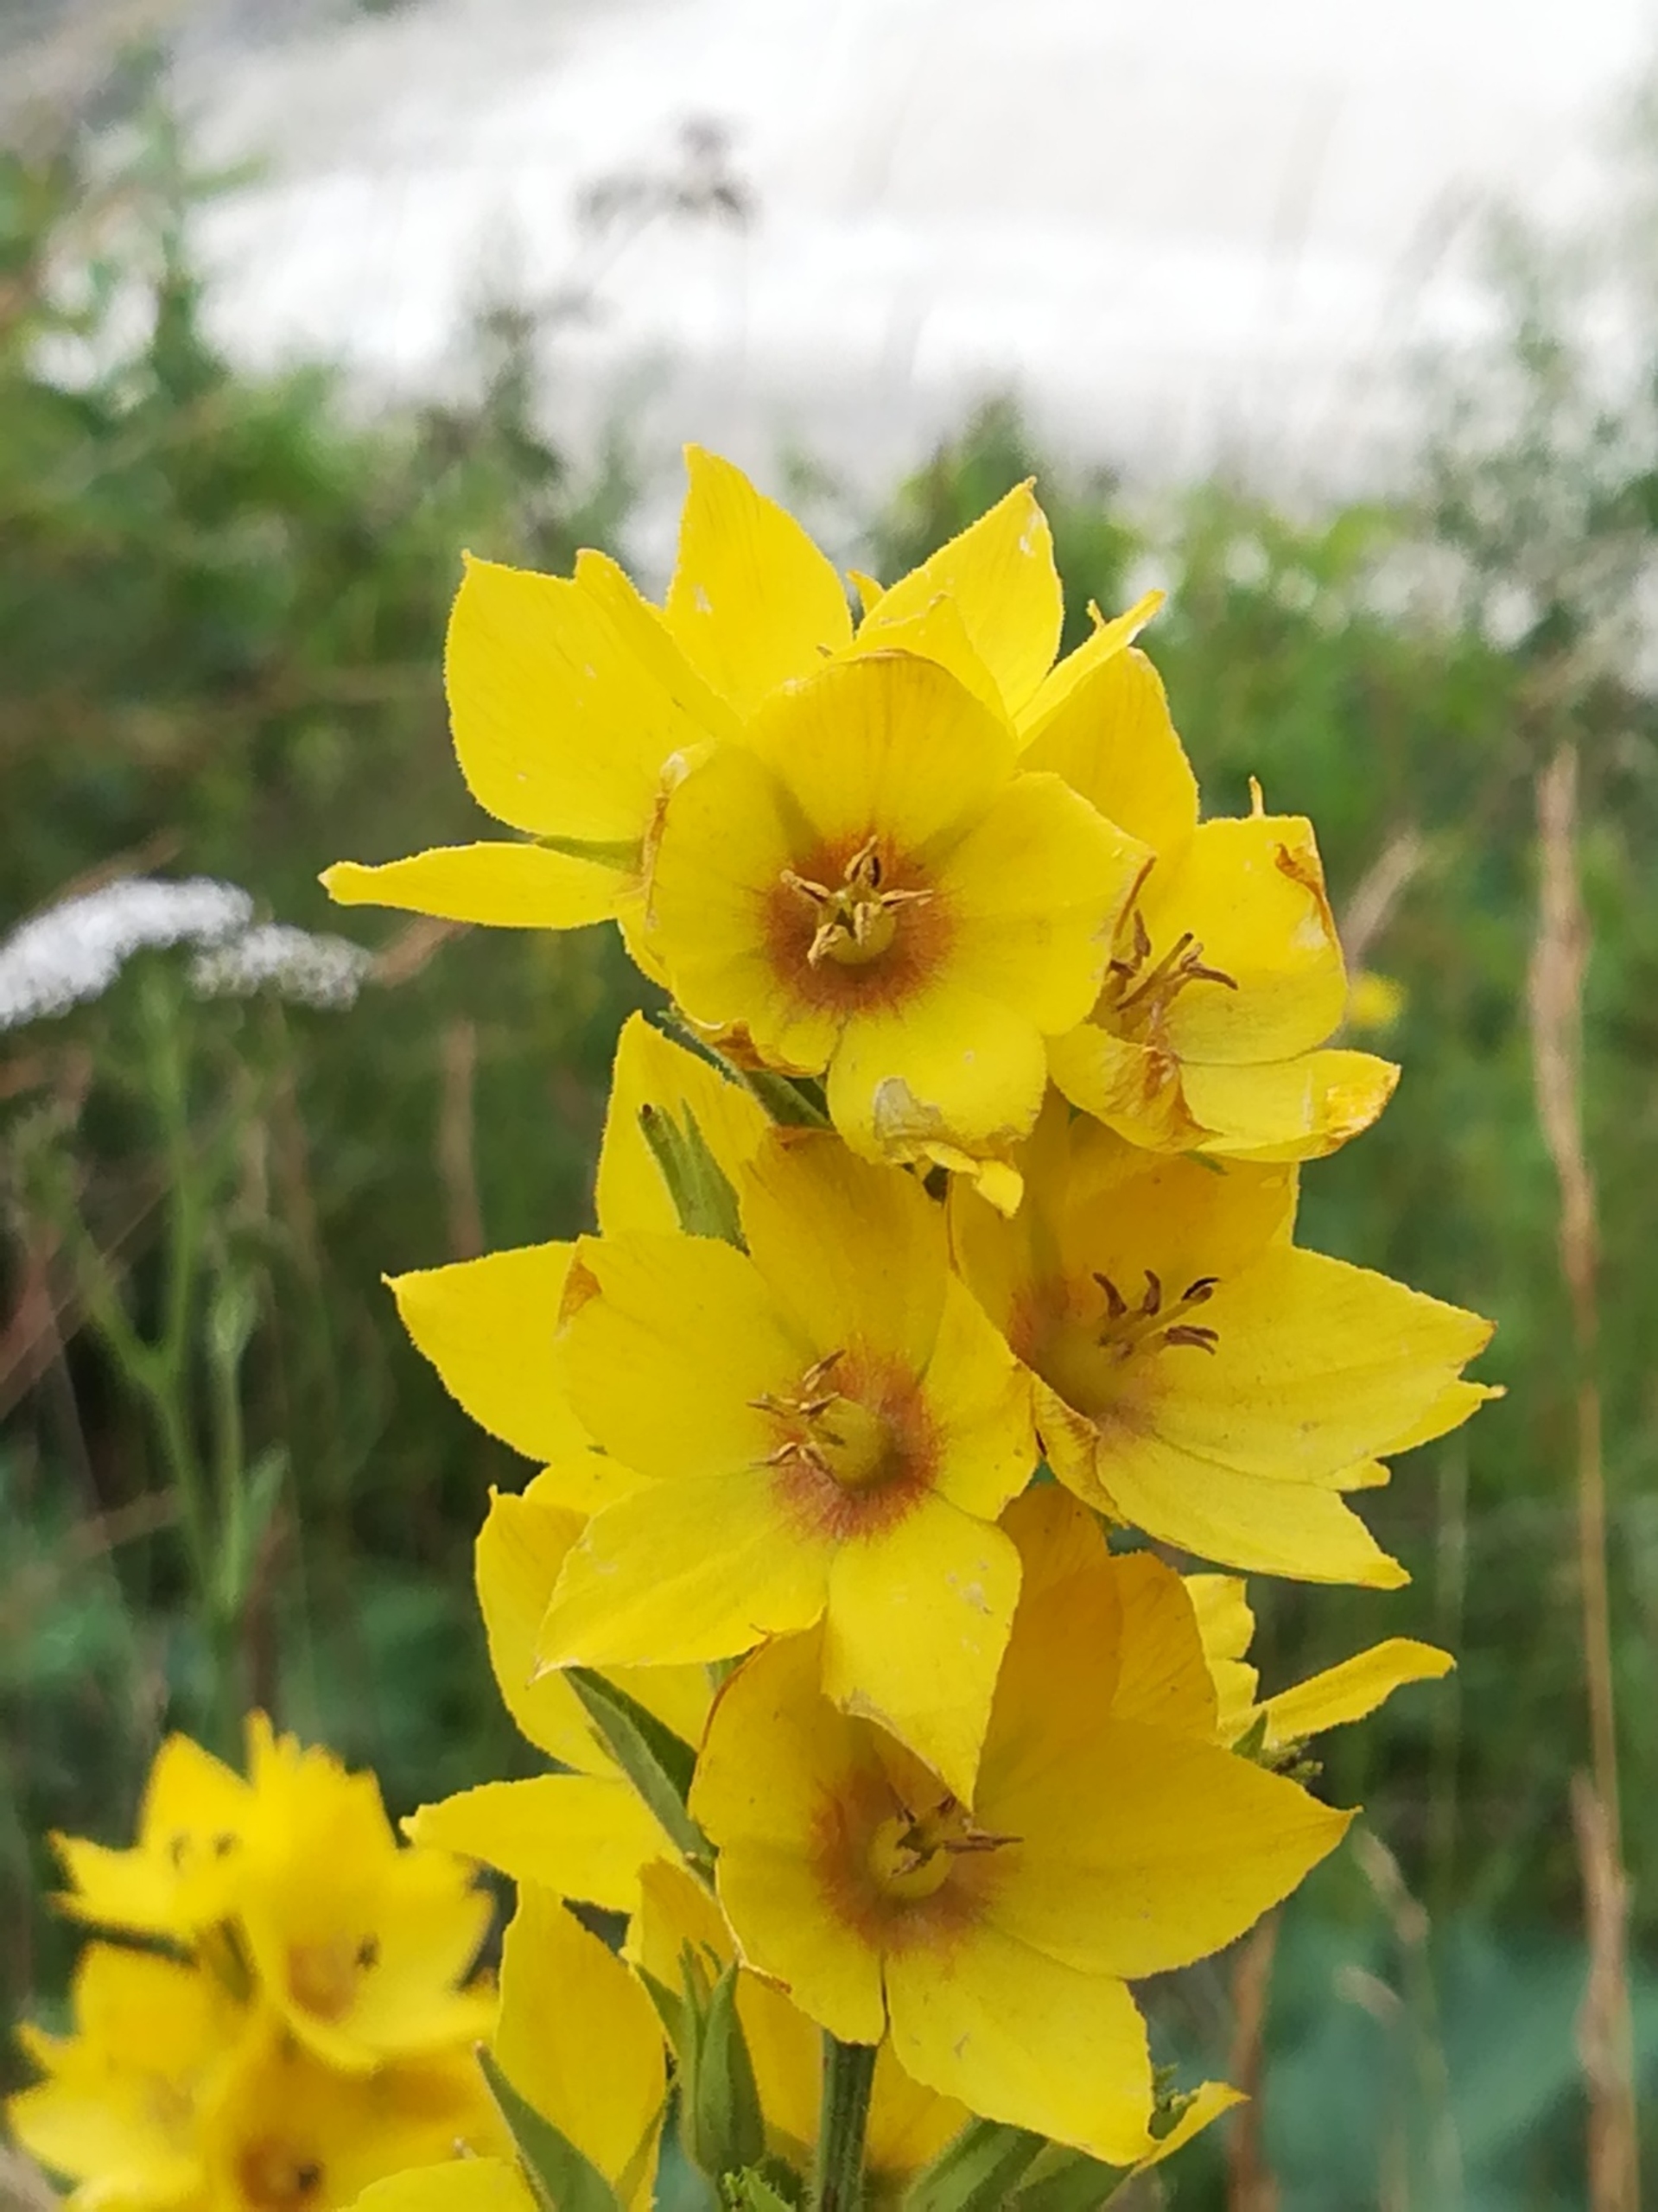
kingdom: Plantae
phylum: Tracheophyta
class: Magnoliopsida
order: Ericales
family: Primulaceae
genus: Lysimachia
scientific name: Lysimachia punctata
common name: Prikbladet fredløs
